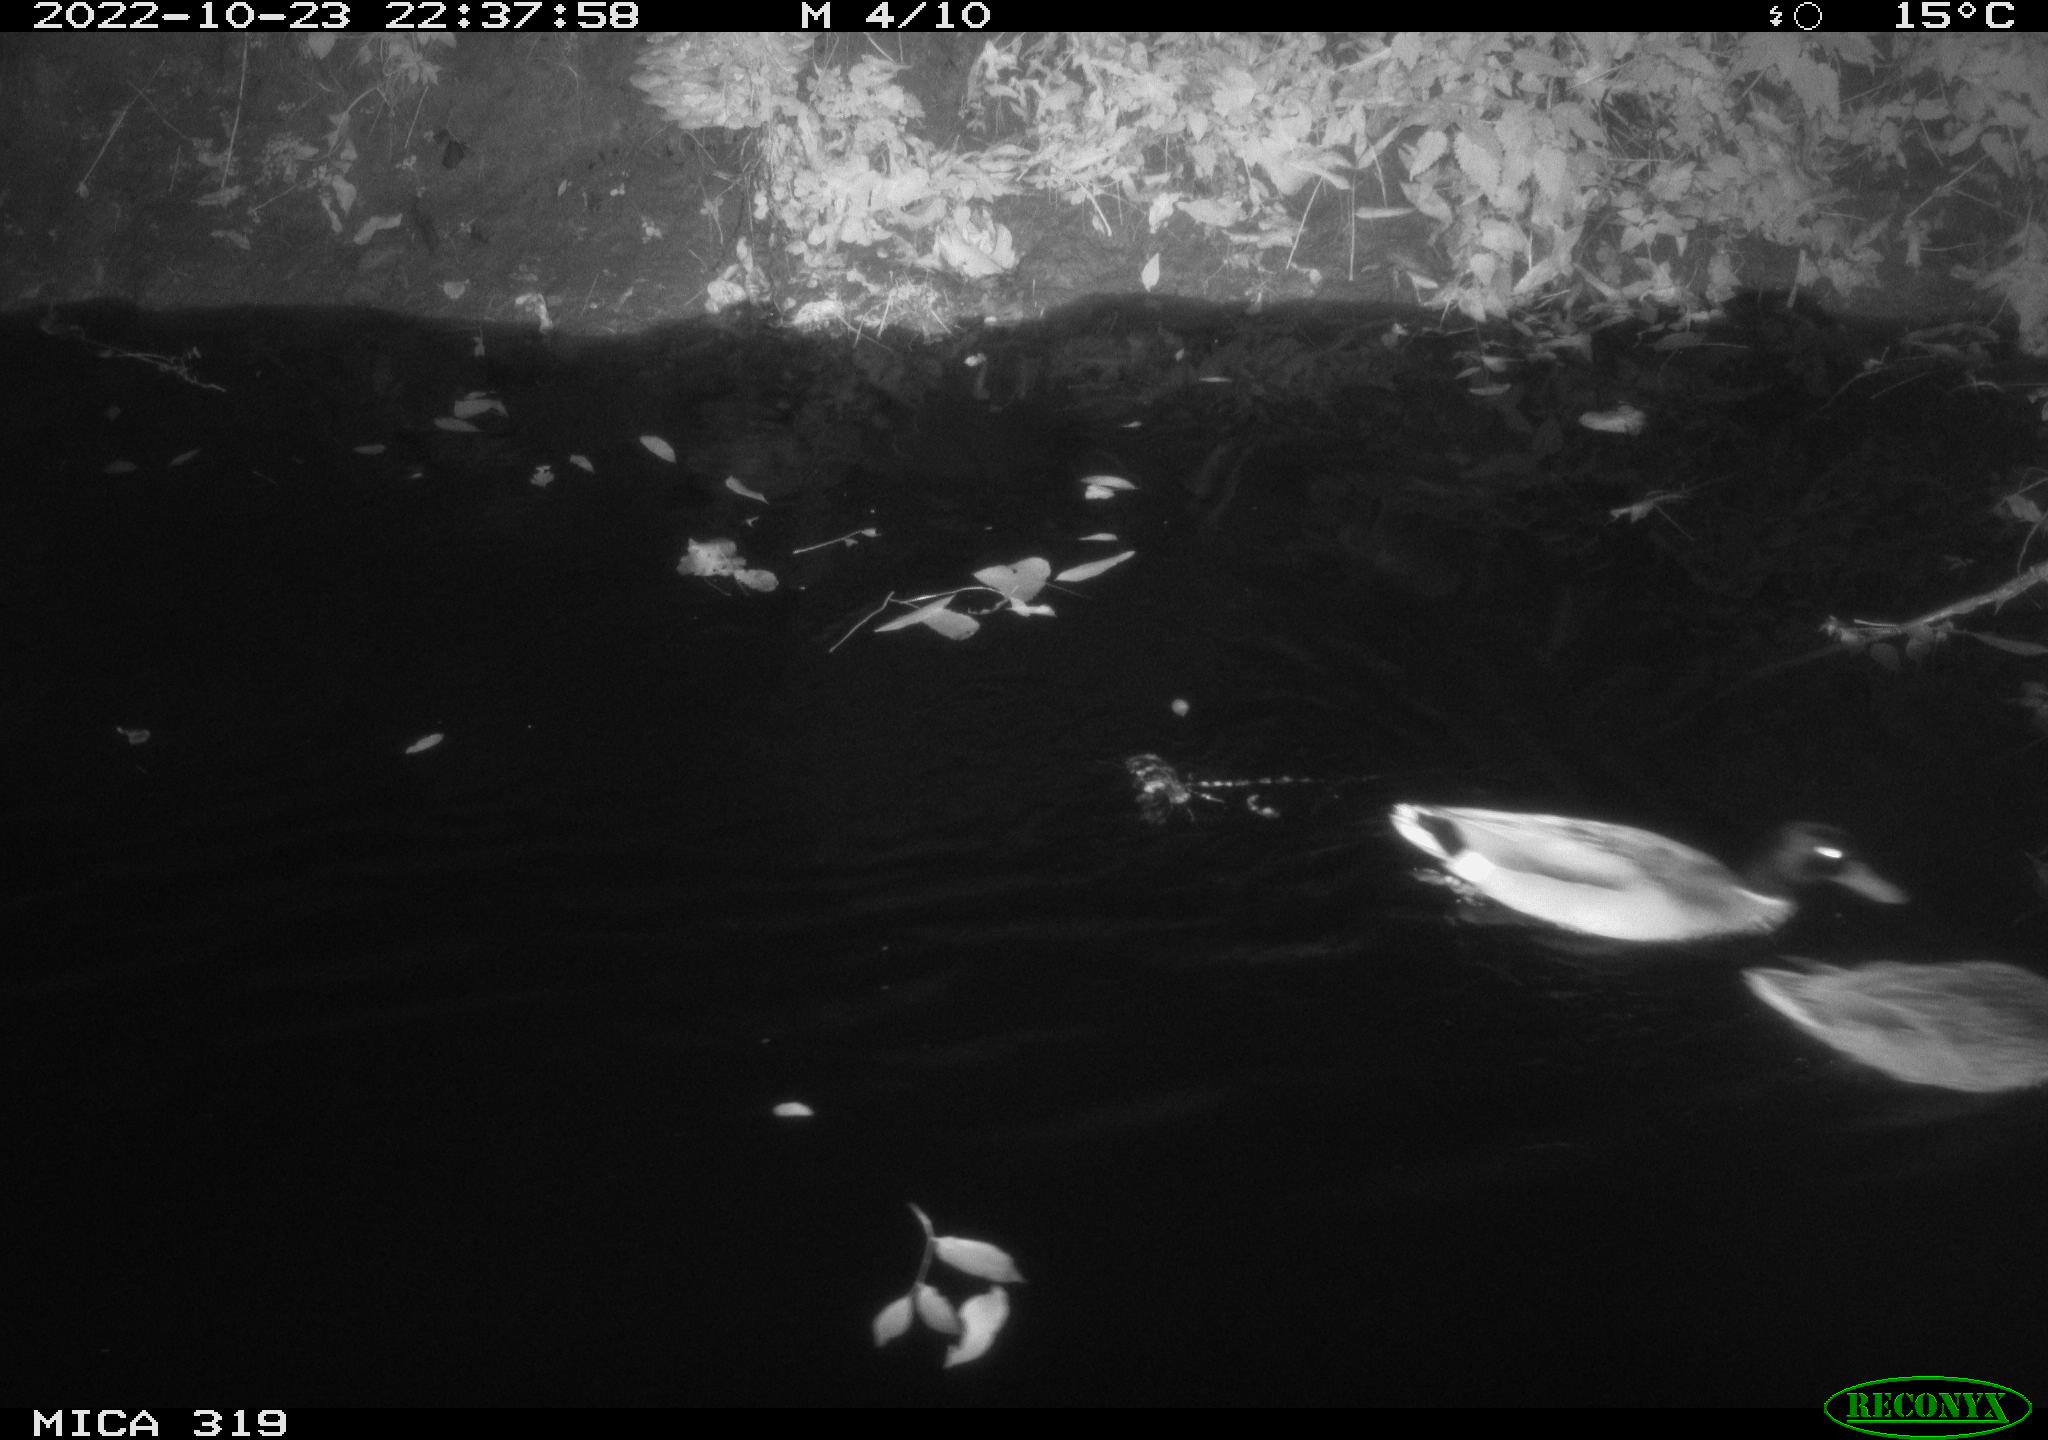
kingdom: Animalia
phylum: Chordata
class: Aves
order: Anseriformes
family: Anatidae
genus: Anas
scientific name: Anas
